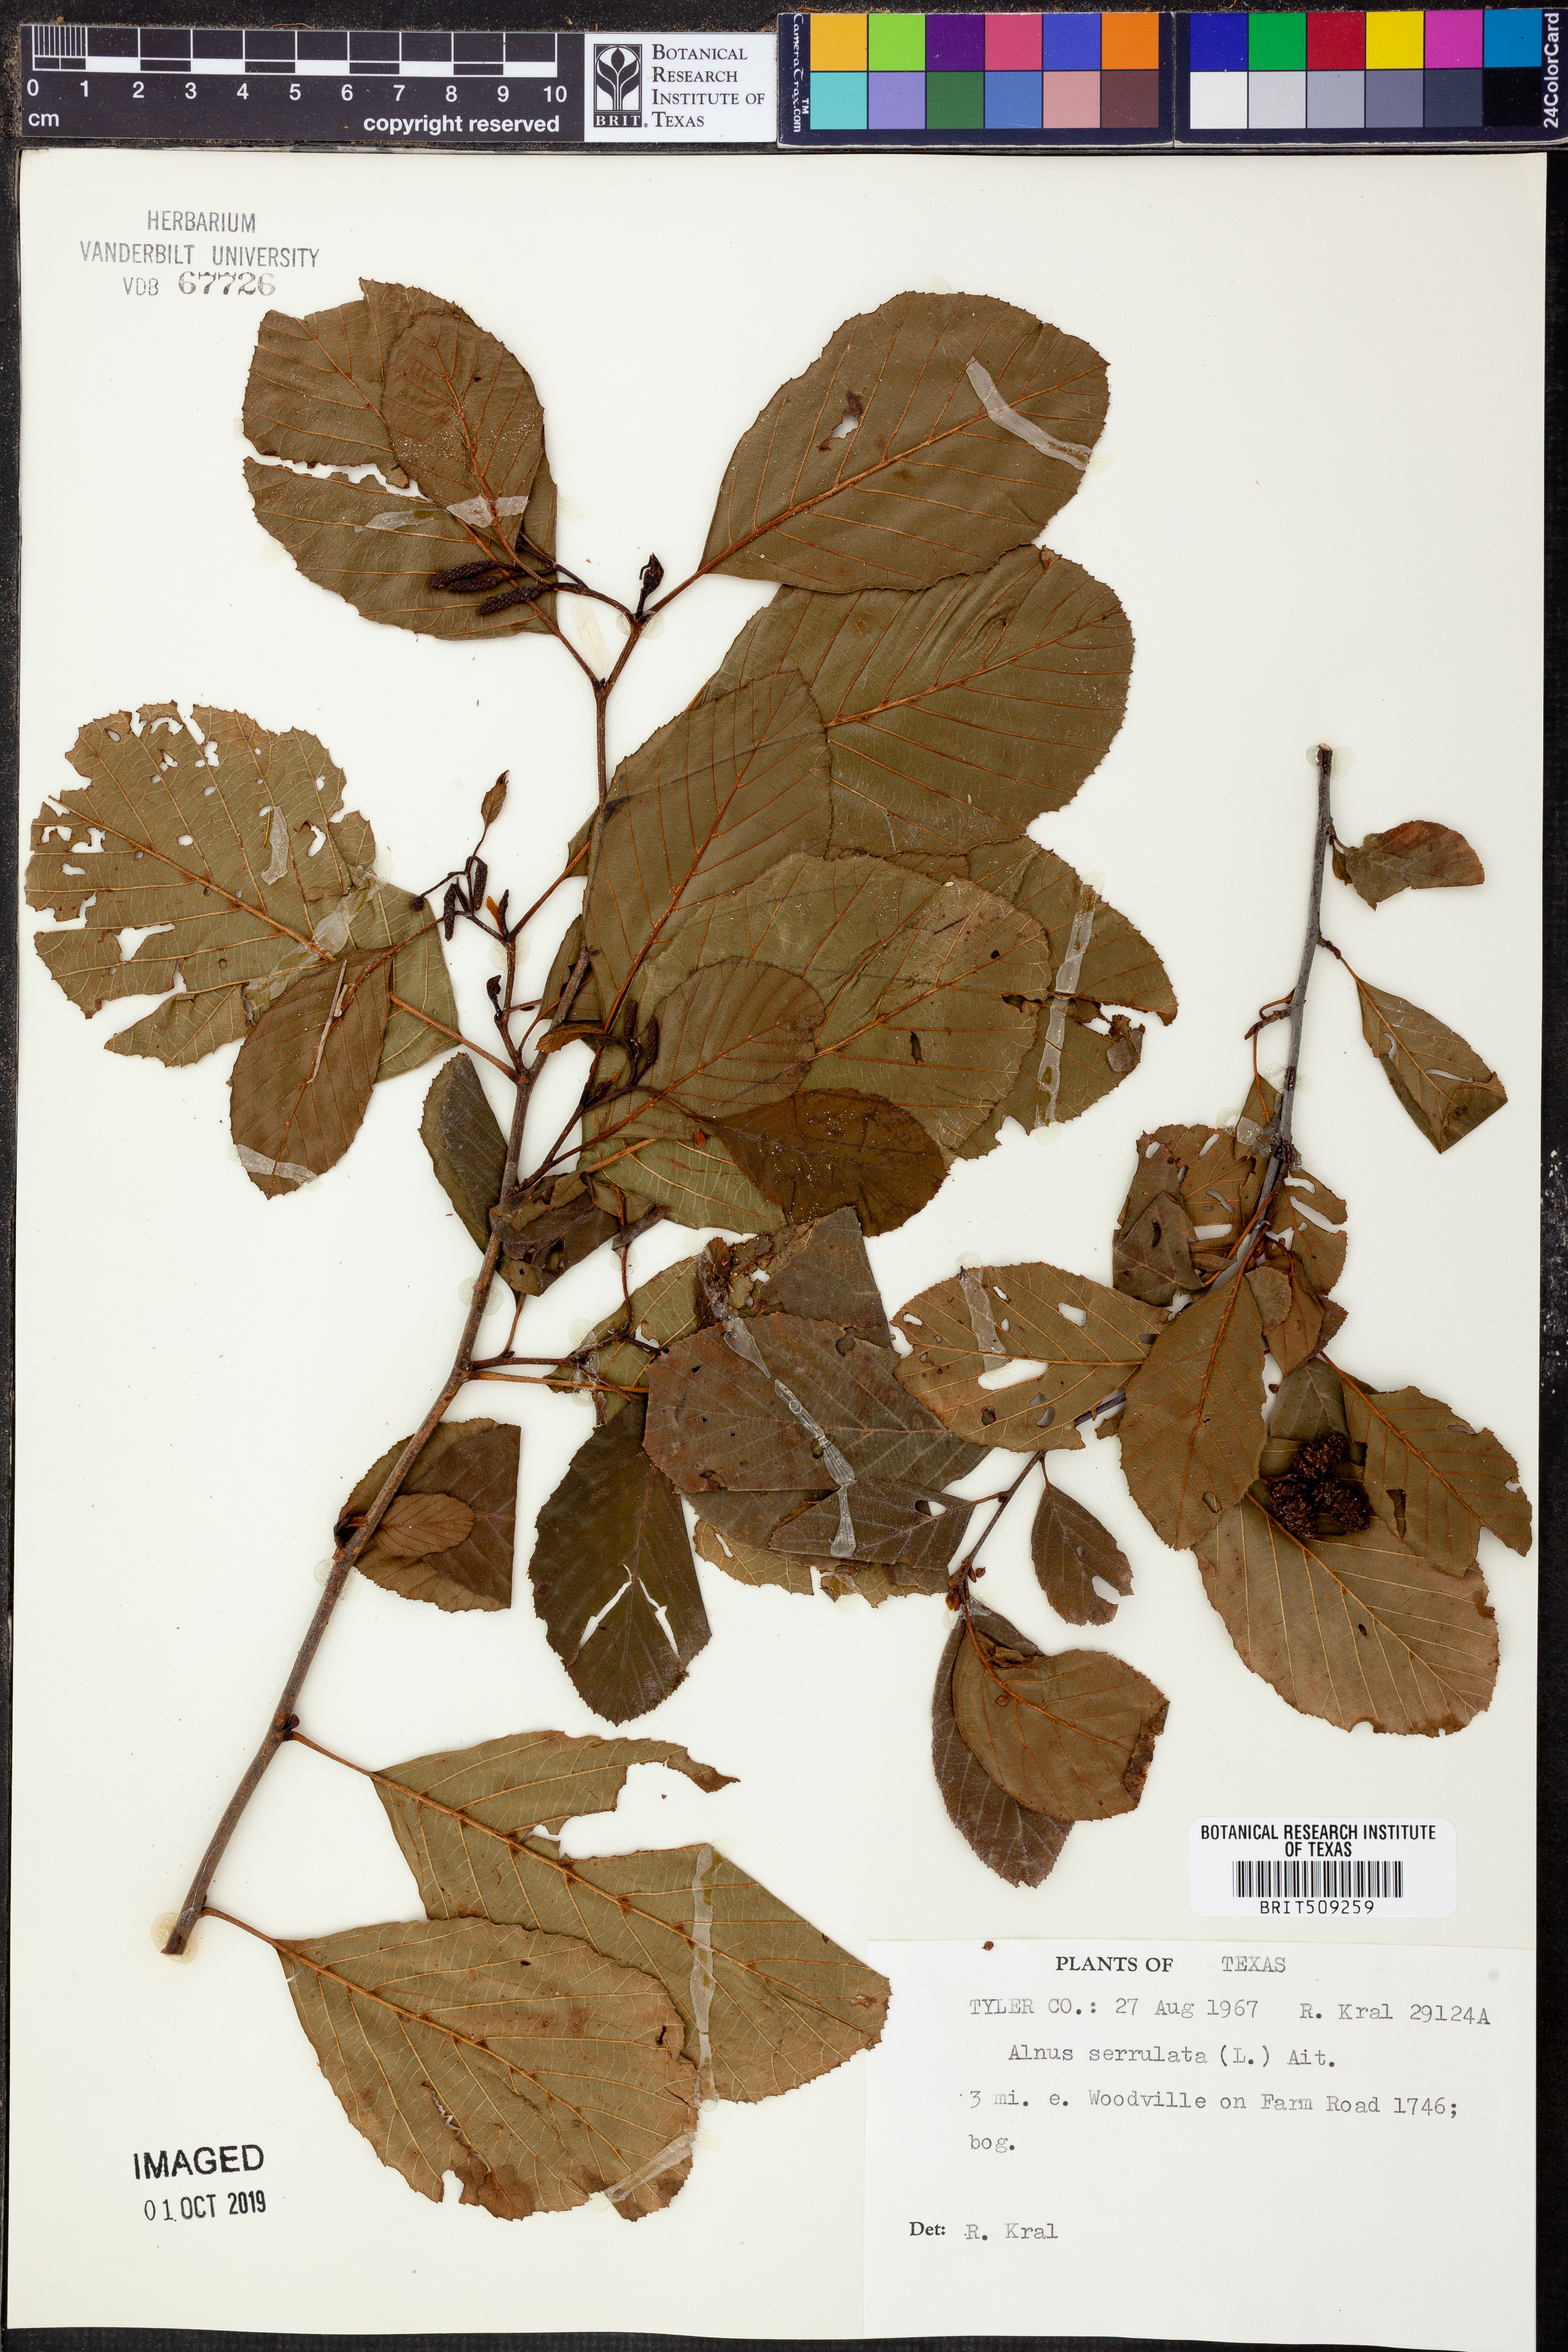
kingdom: Plantae
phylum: Tracheophyta
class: Magnoliopsida
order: Fagales
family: Betulaceae
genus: Alnus
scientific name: Alnus serrulata
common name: Hazel alder
